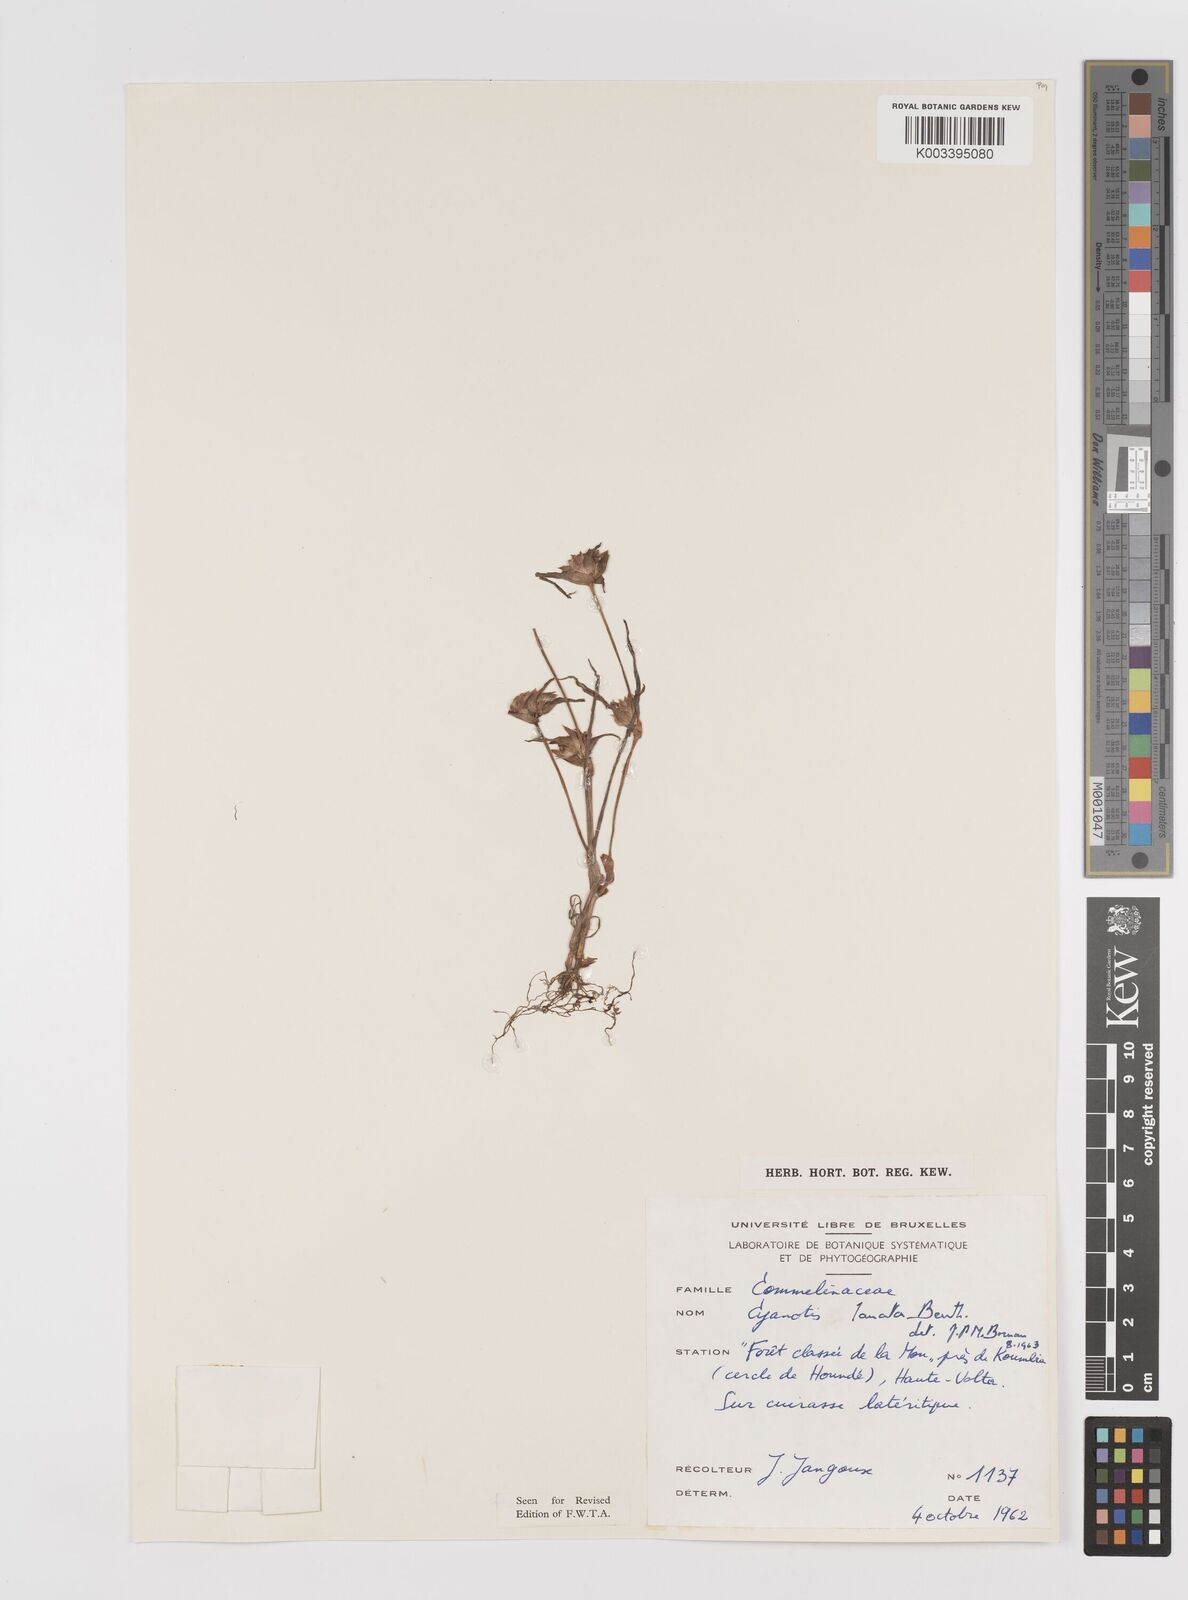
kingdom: Plantae
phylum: Tracheophyta
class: Liliopsida
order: Commelinales
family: Commelinaceae
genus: Cyanotis
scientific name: Cyanotis lanata
